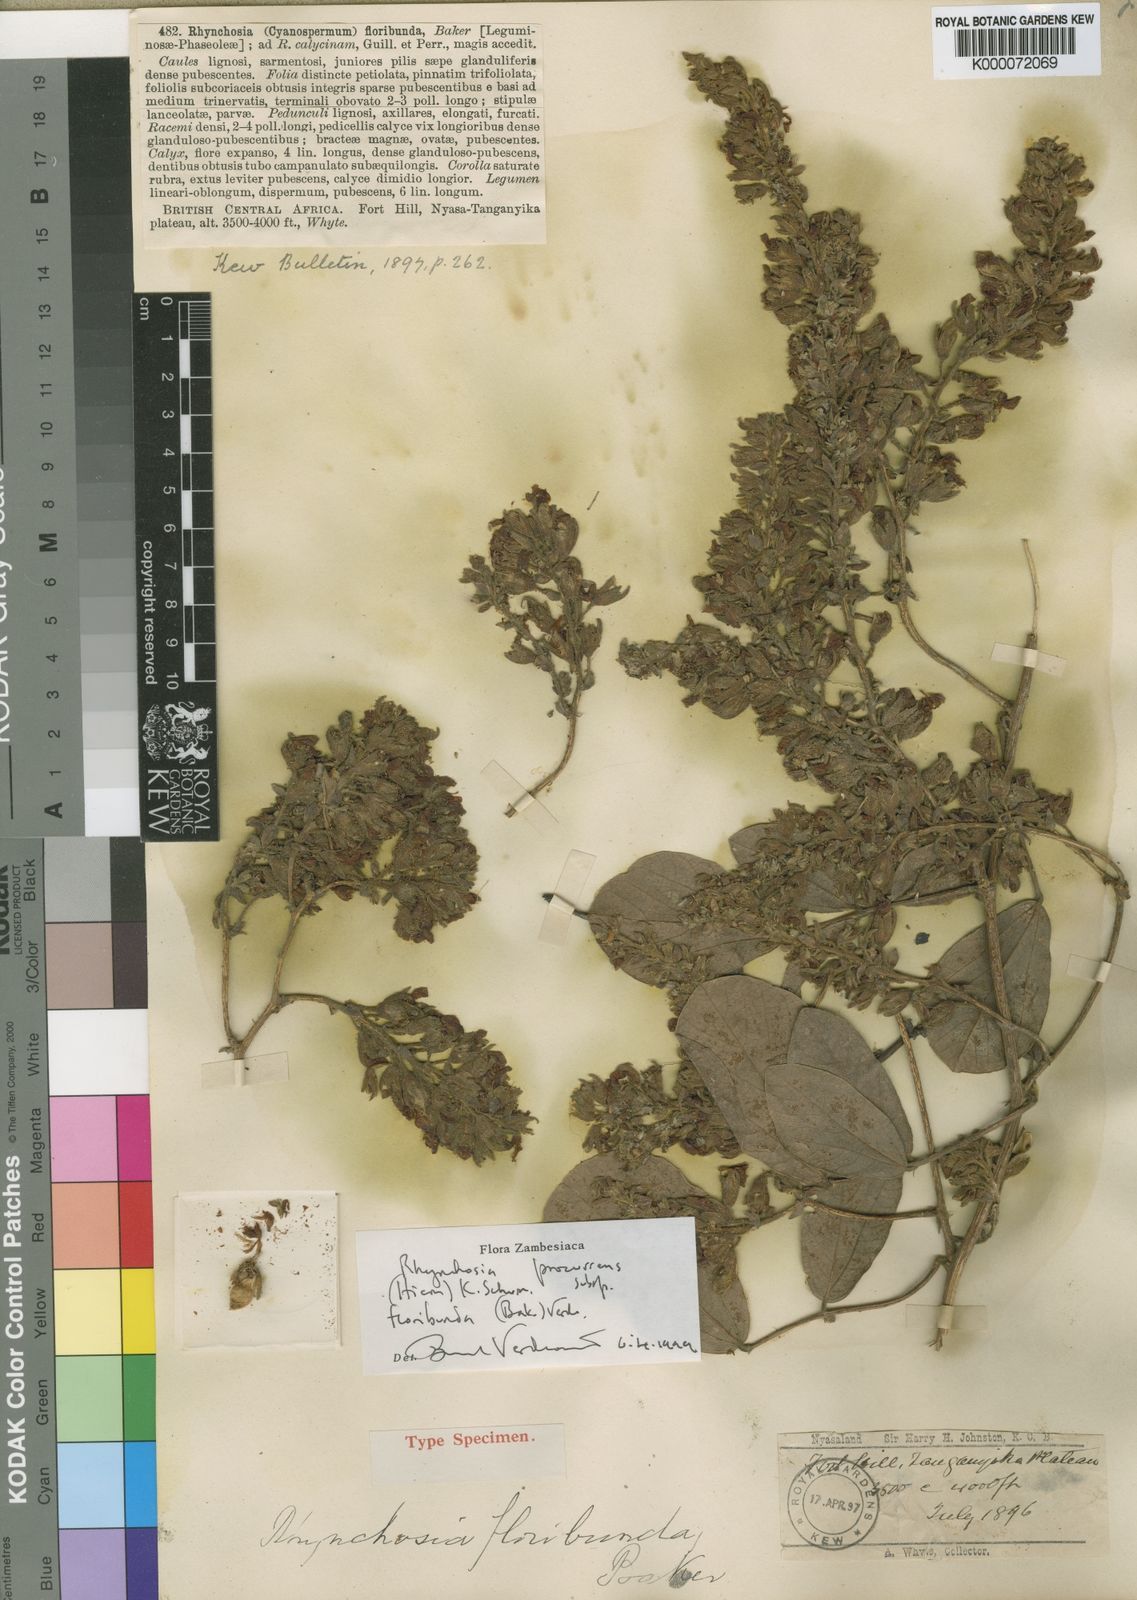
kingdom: Plantae
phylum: Tracheophyta
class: Magnoliopsida
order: Fabales
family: Fabaceae
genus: Rhynchosia
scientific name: Rhynchosia procurrens
